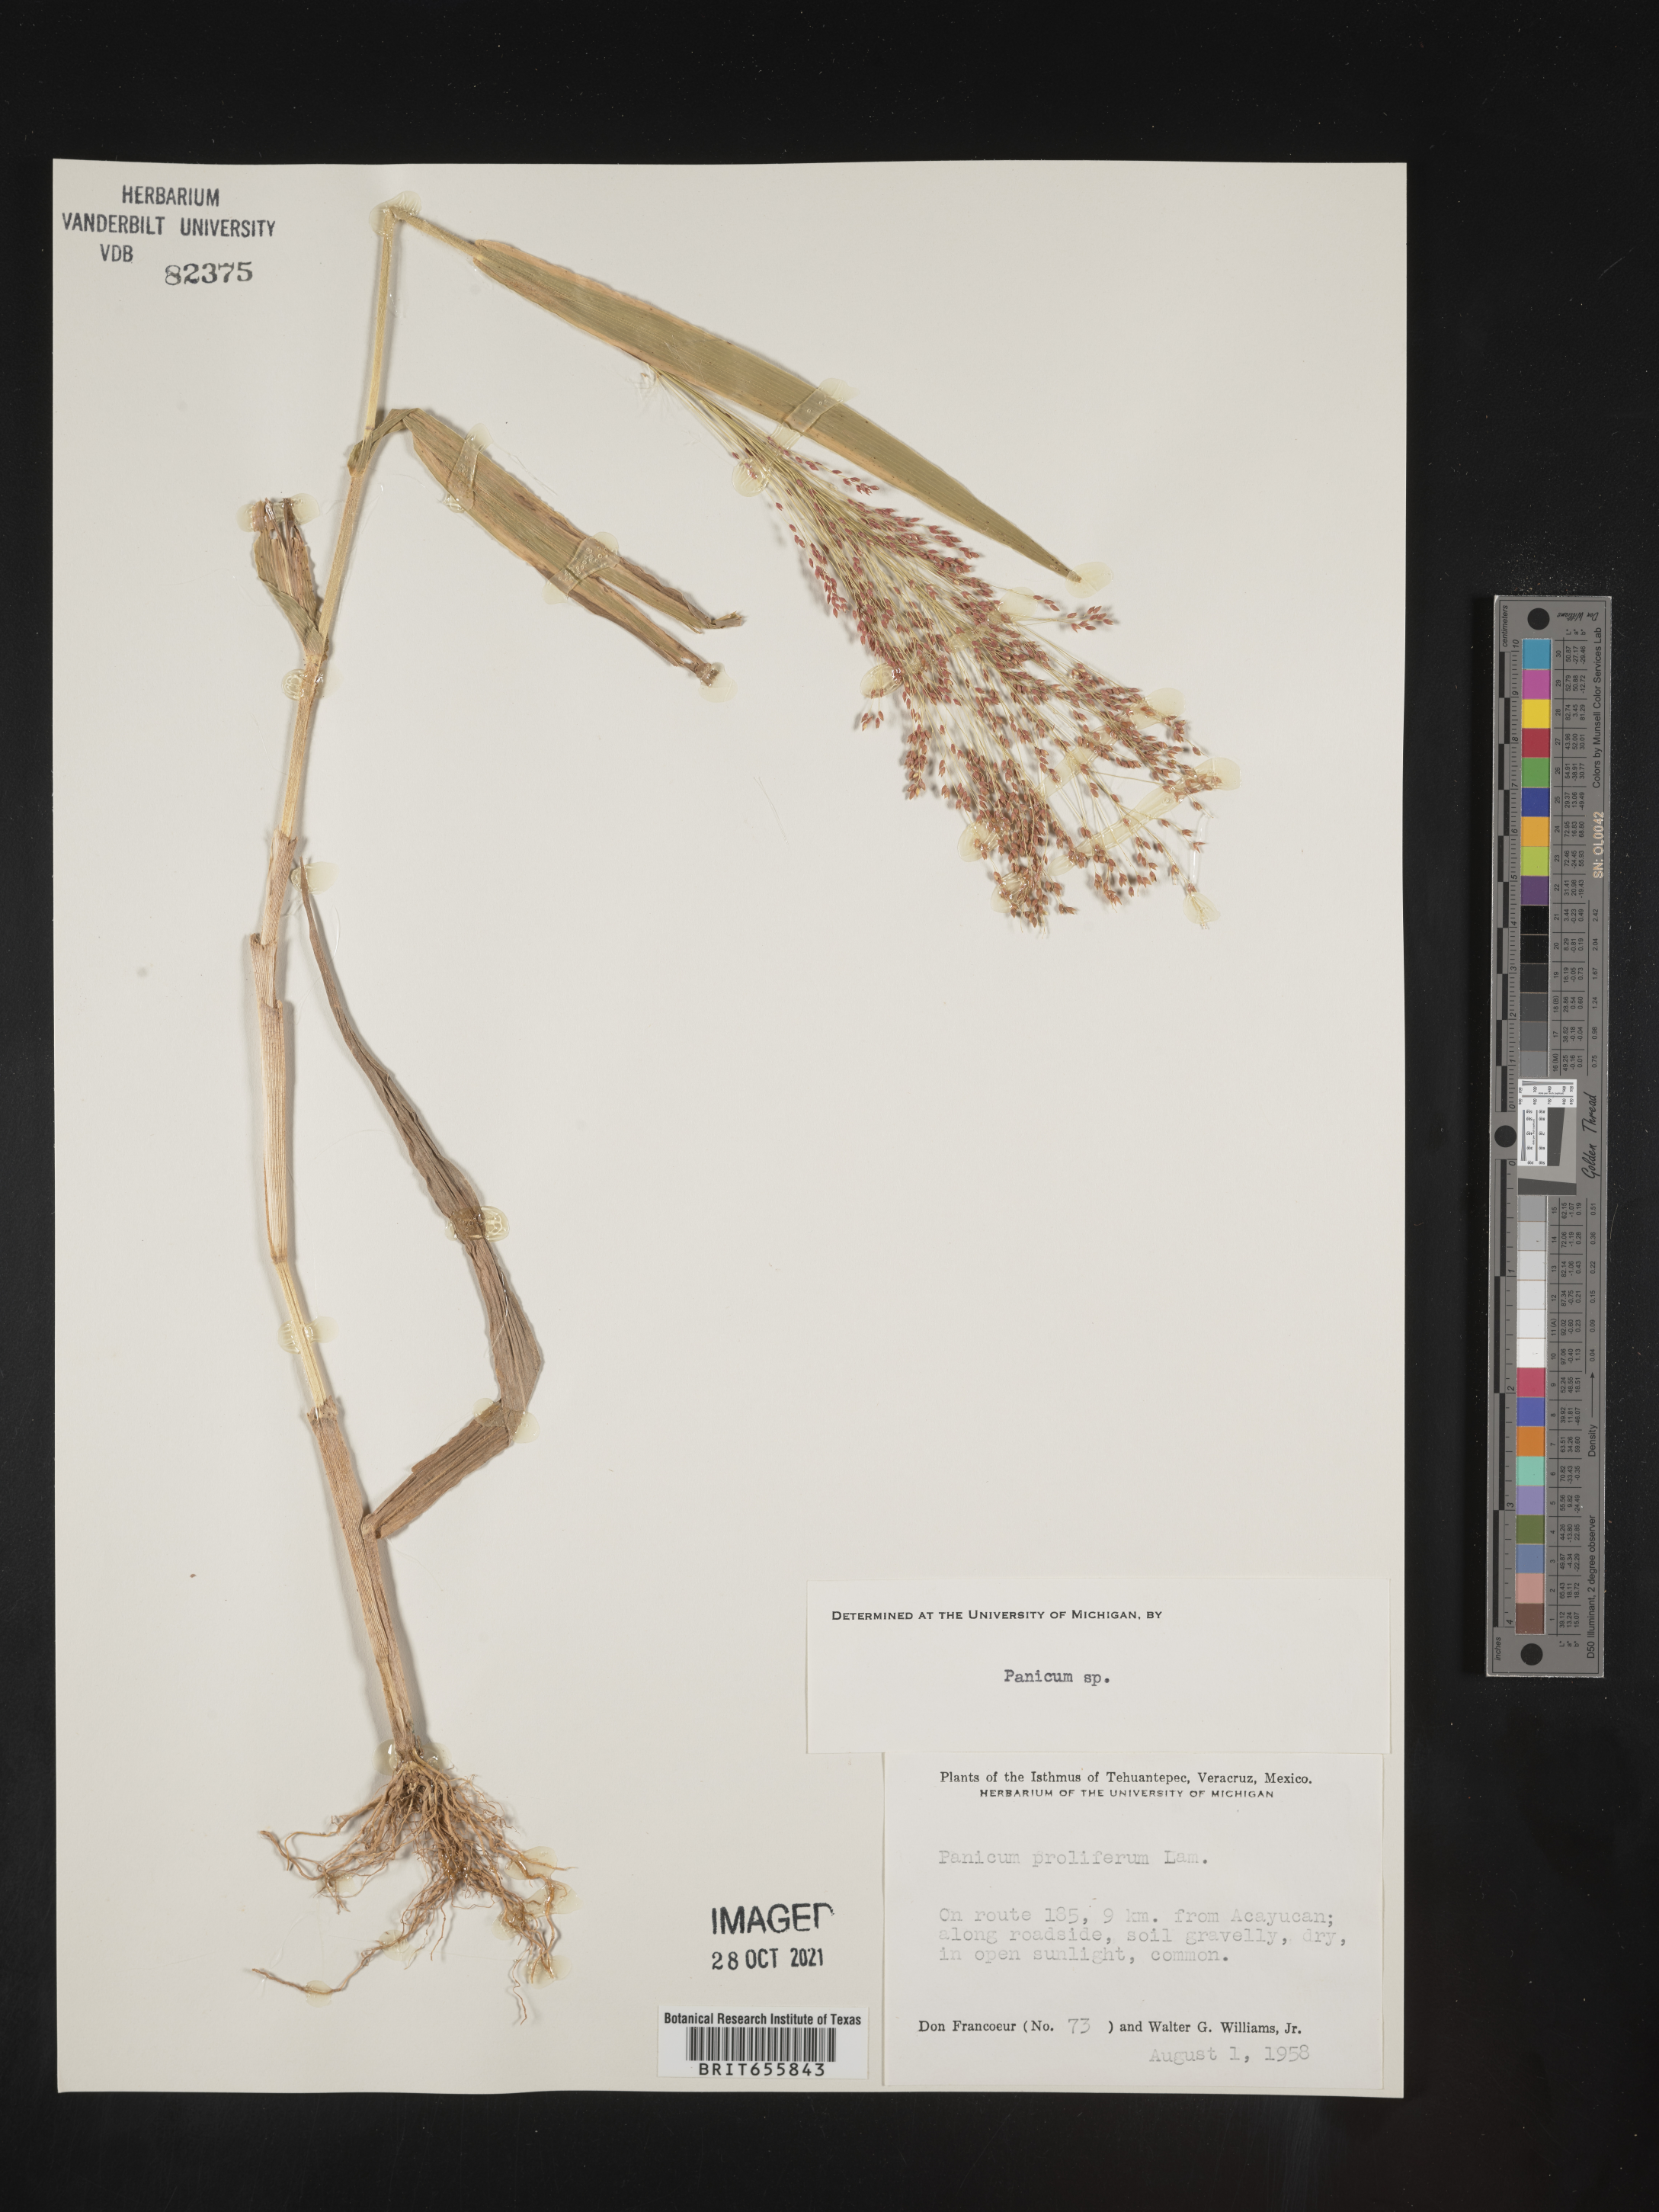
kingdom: Plantae
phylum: Tracheophyta
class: Liliopsida
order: Poales
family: Poaceae
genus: Panicum
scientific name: Panicum
